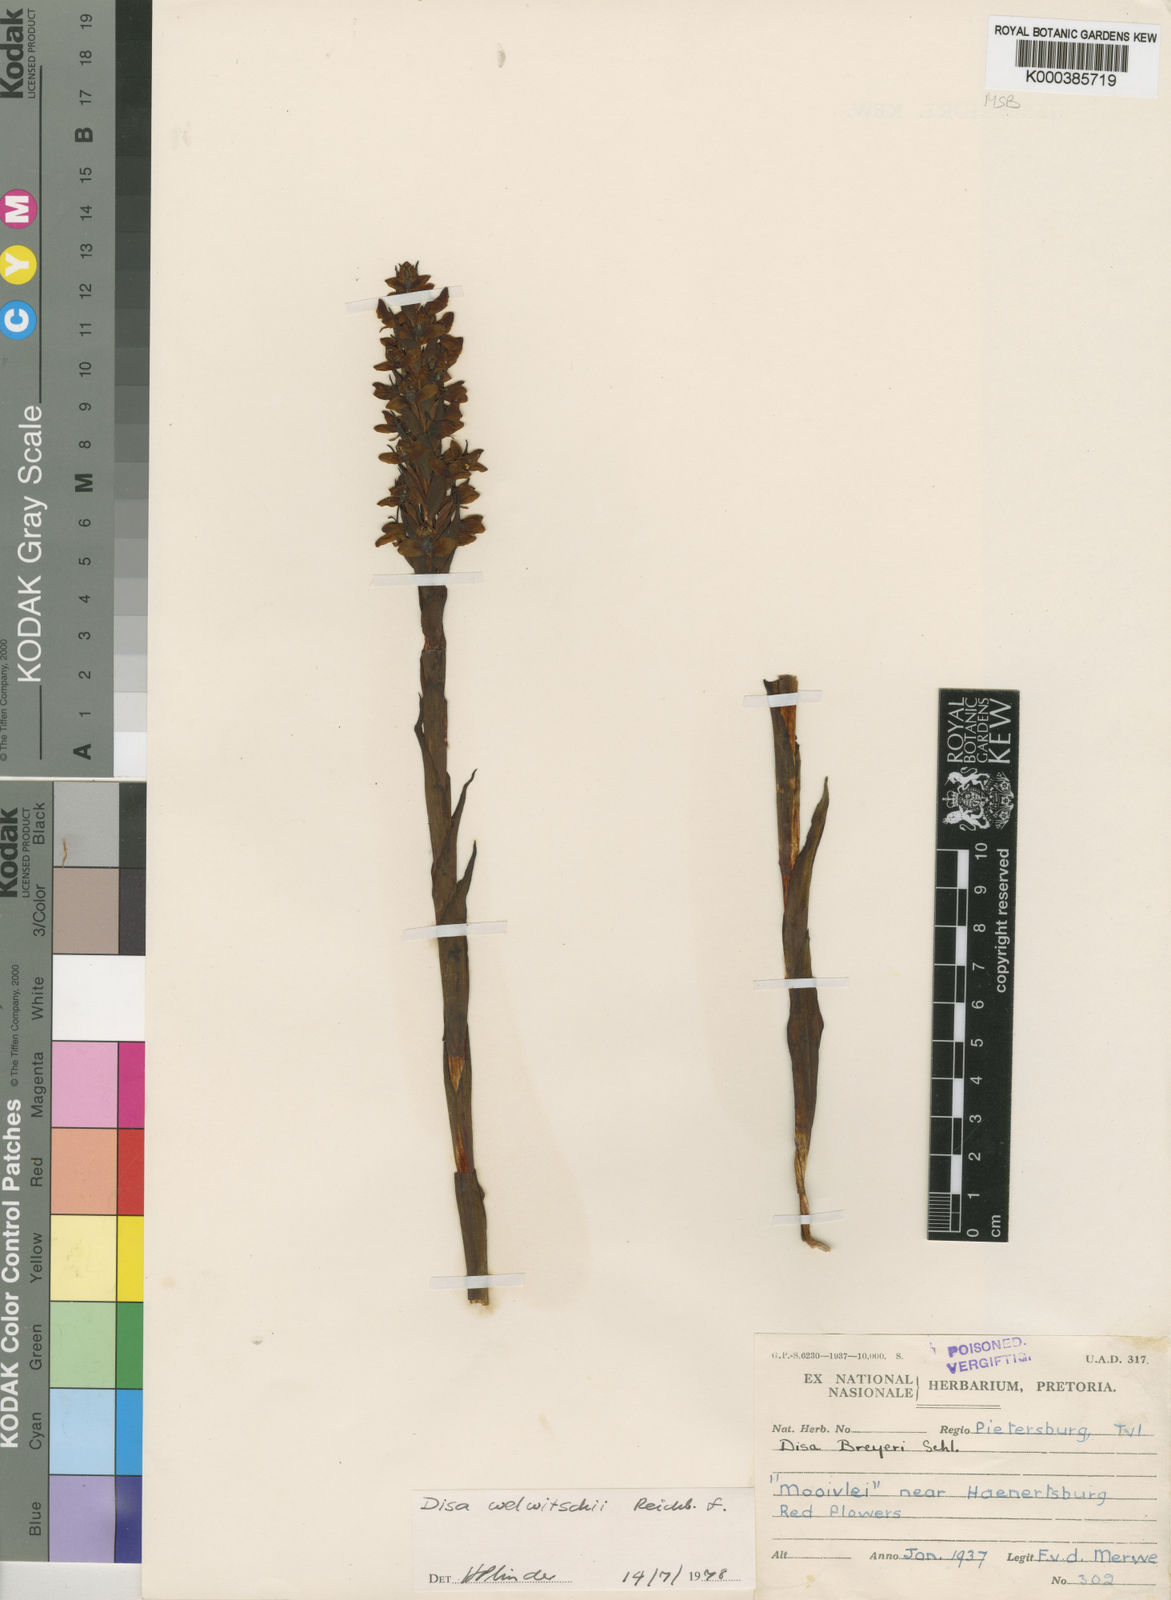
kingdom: Plantae
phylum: Tracheophyta
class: Liliopsida
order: Asparagales
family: Orchidaceae
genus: Disa
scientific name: Disa welwitschii
